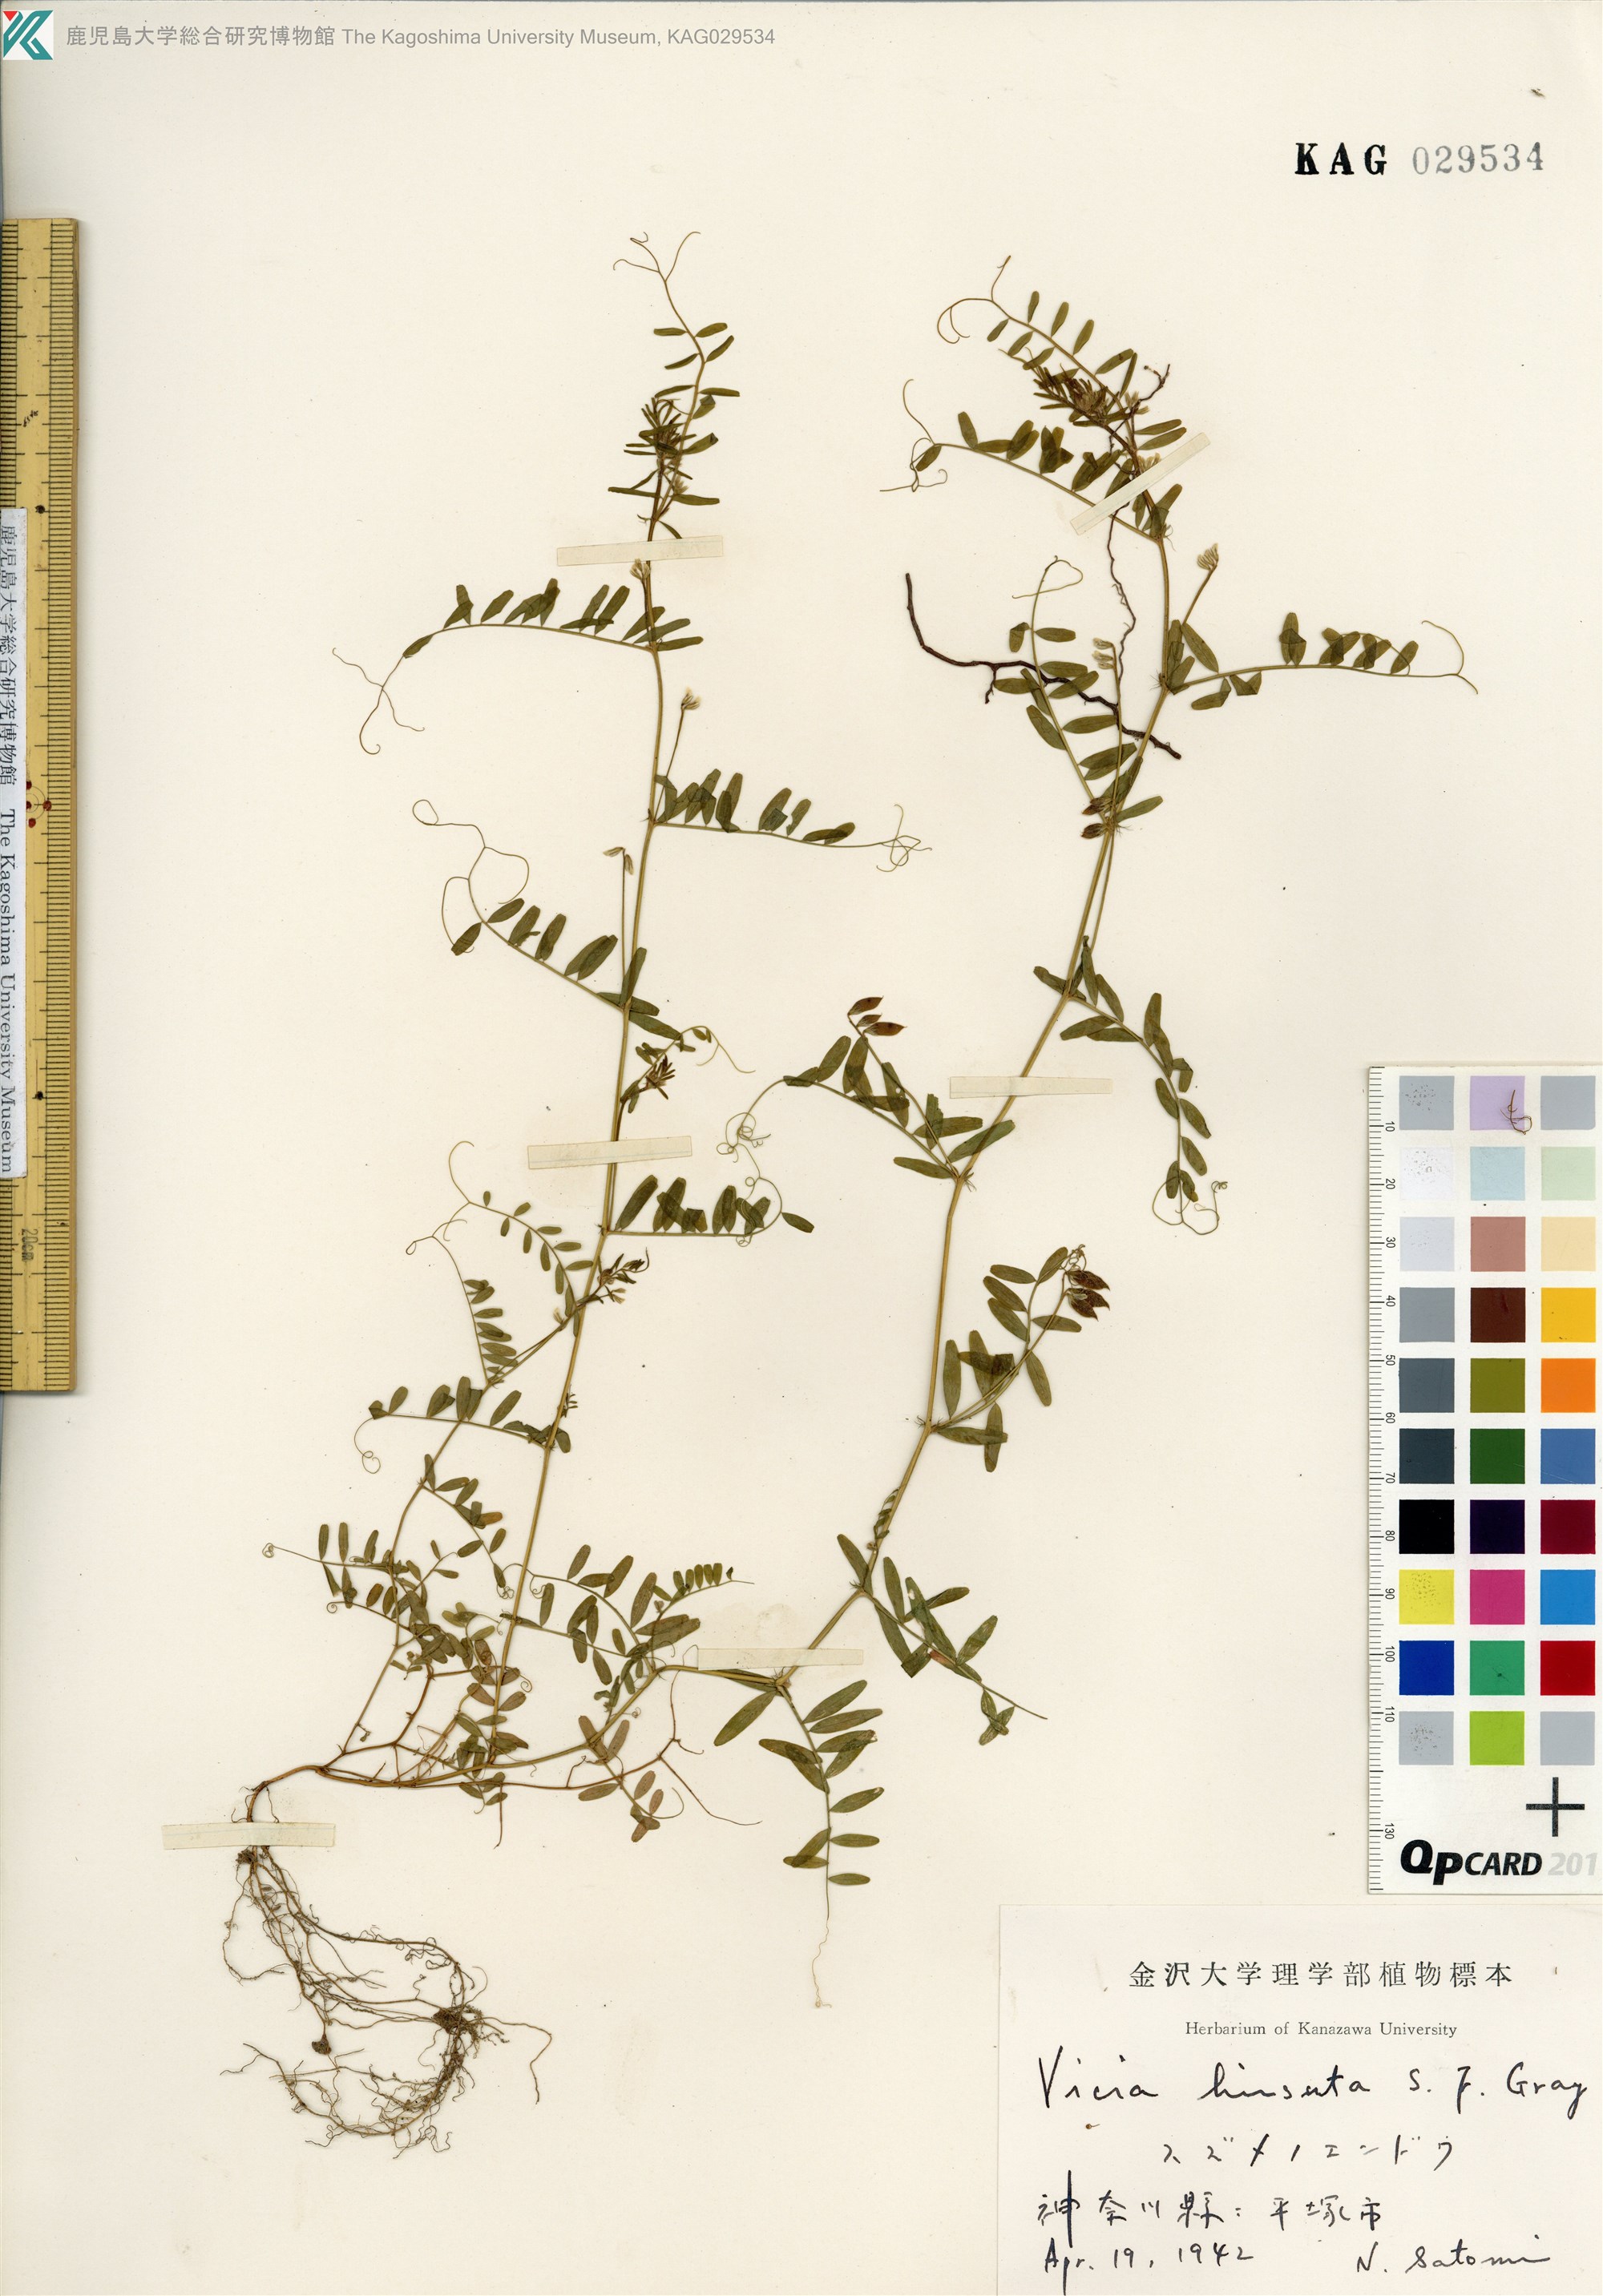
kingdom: Plantae
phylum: Tracheophyta
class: Magnoliopsida
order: Fabales
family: Fabaceae
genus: Vicia
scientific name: Vicia hirsuta
